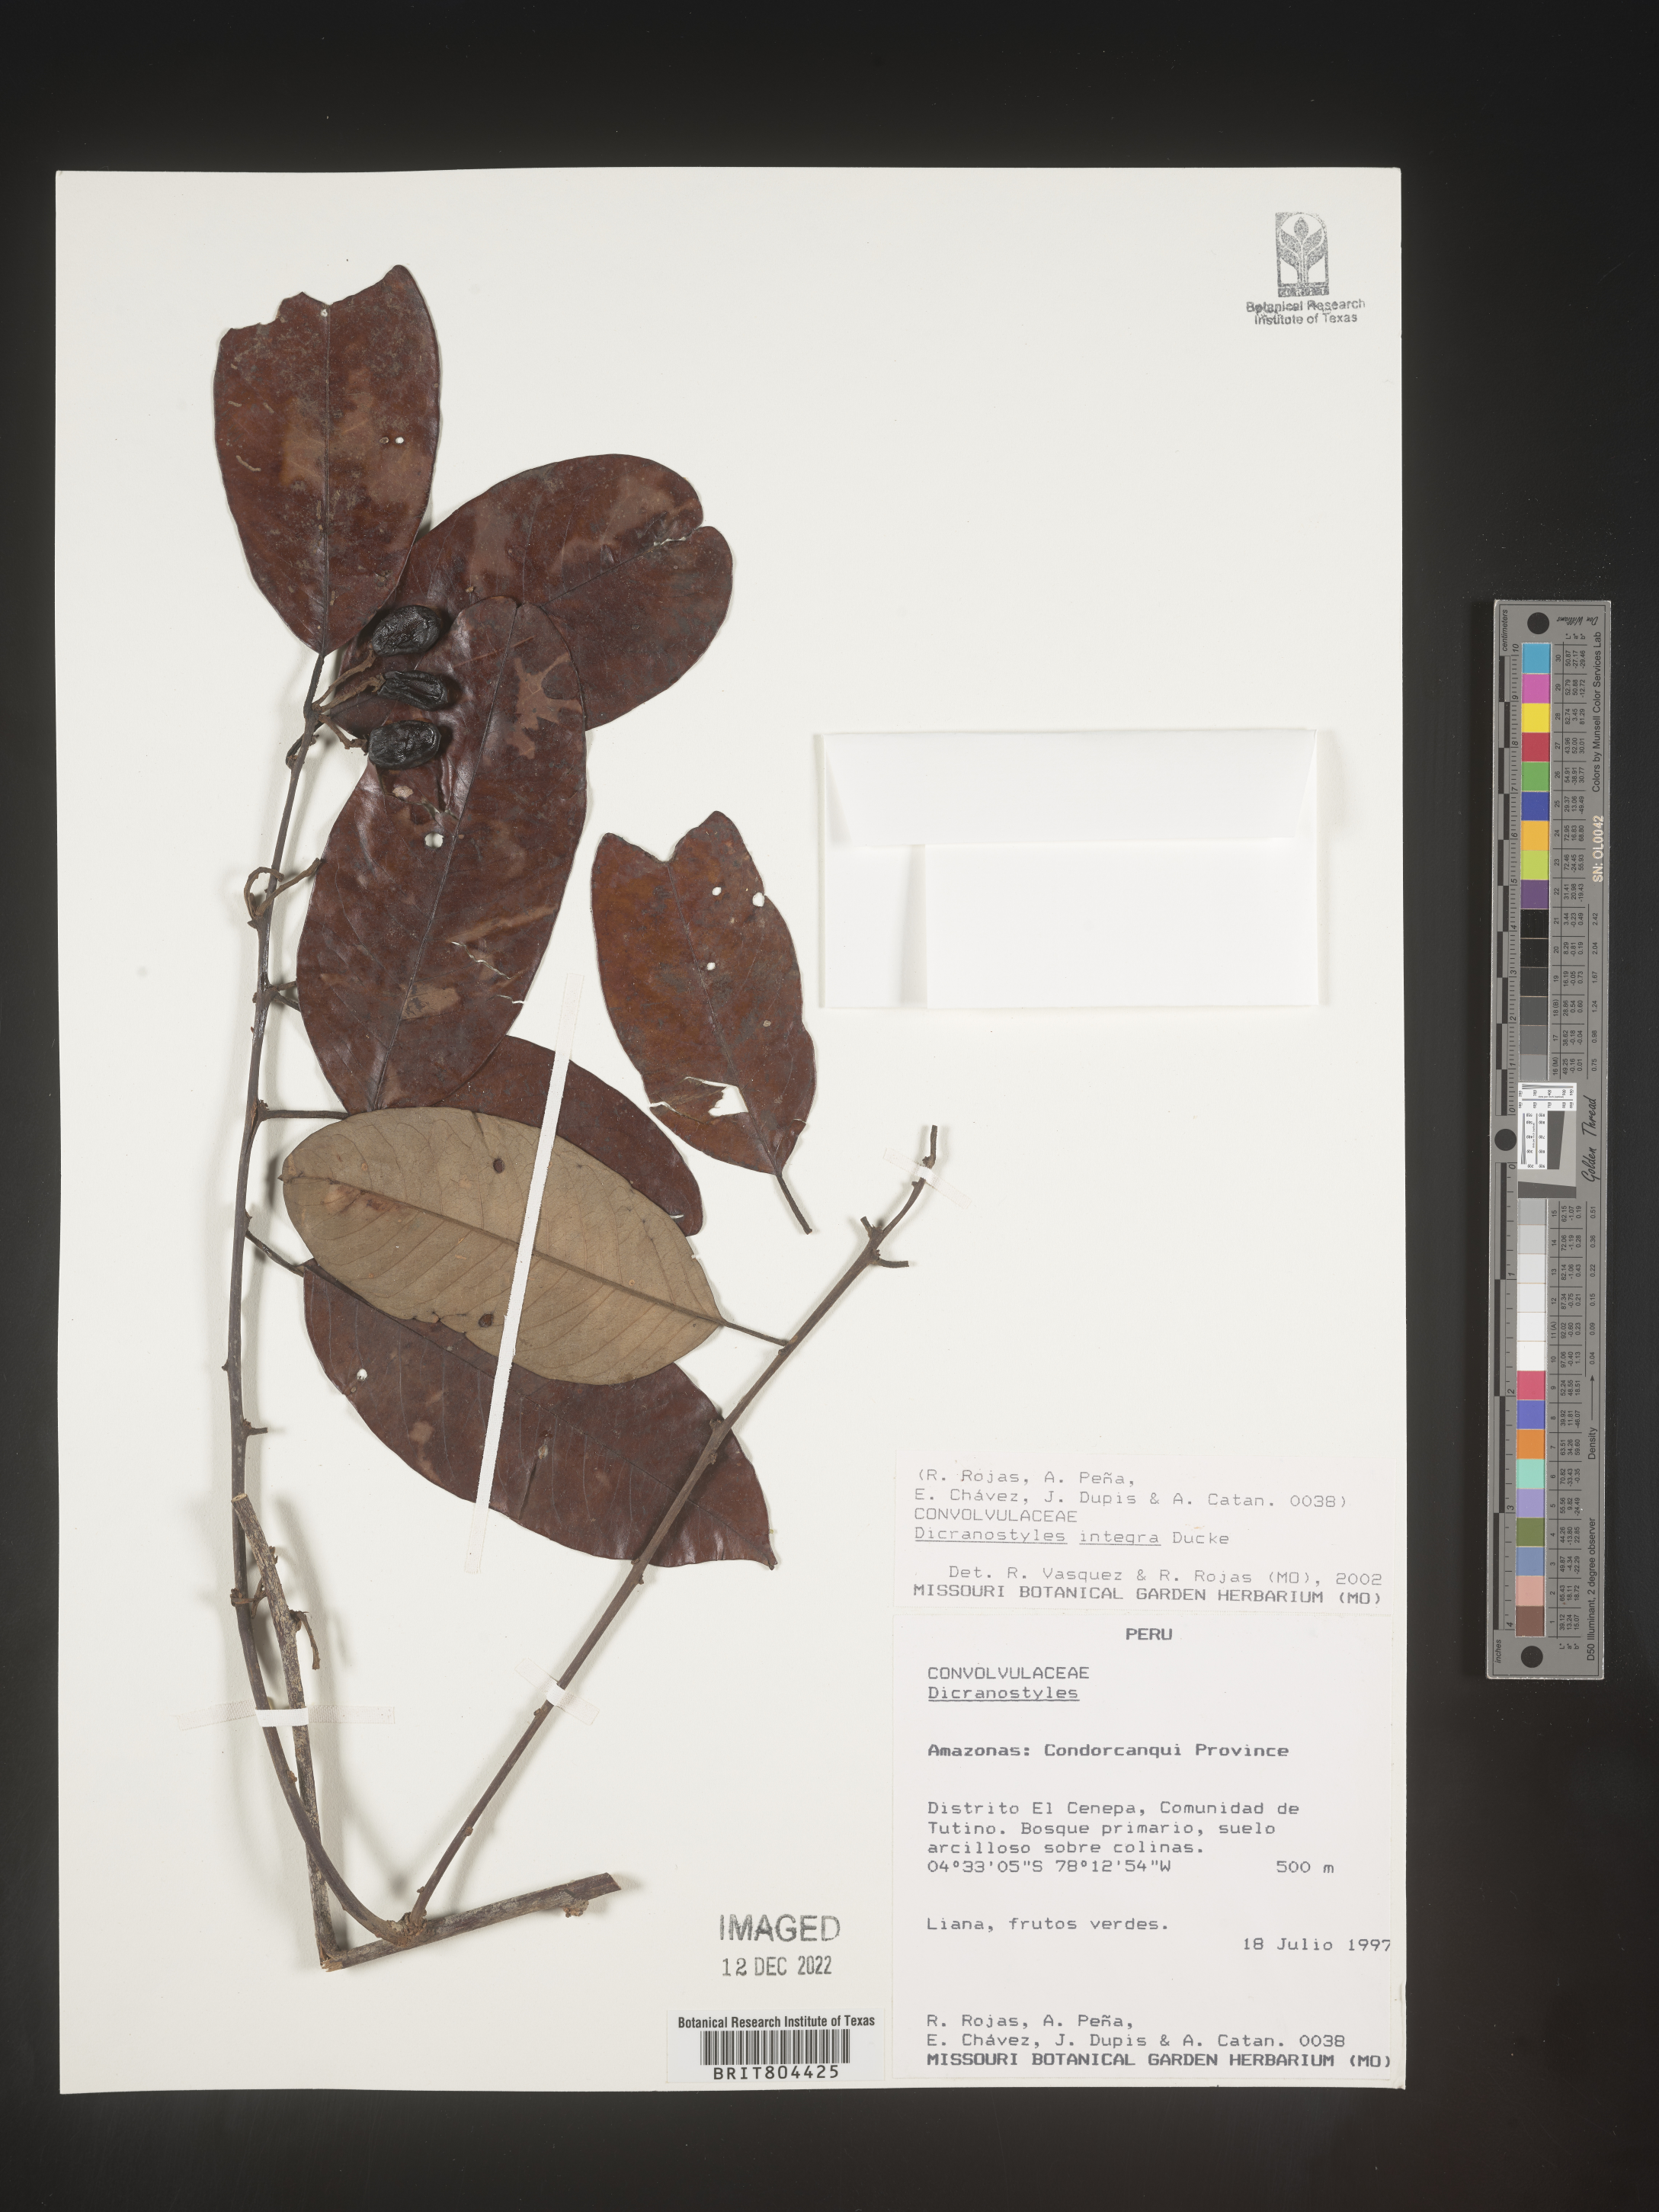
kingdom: Plantae
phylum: Tracheophyta
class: Magnoliopsida
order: Solanales
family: Convolvulaceae
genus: Dicranostyles
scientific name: Dicranostyles
